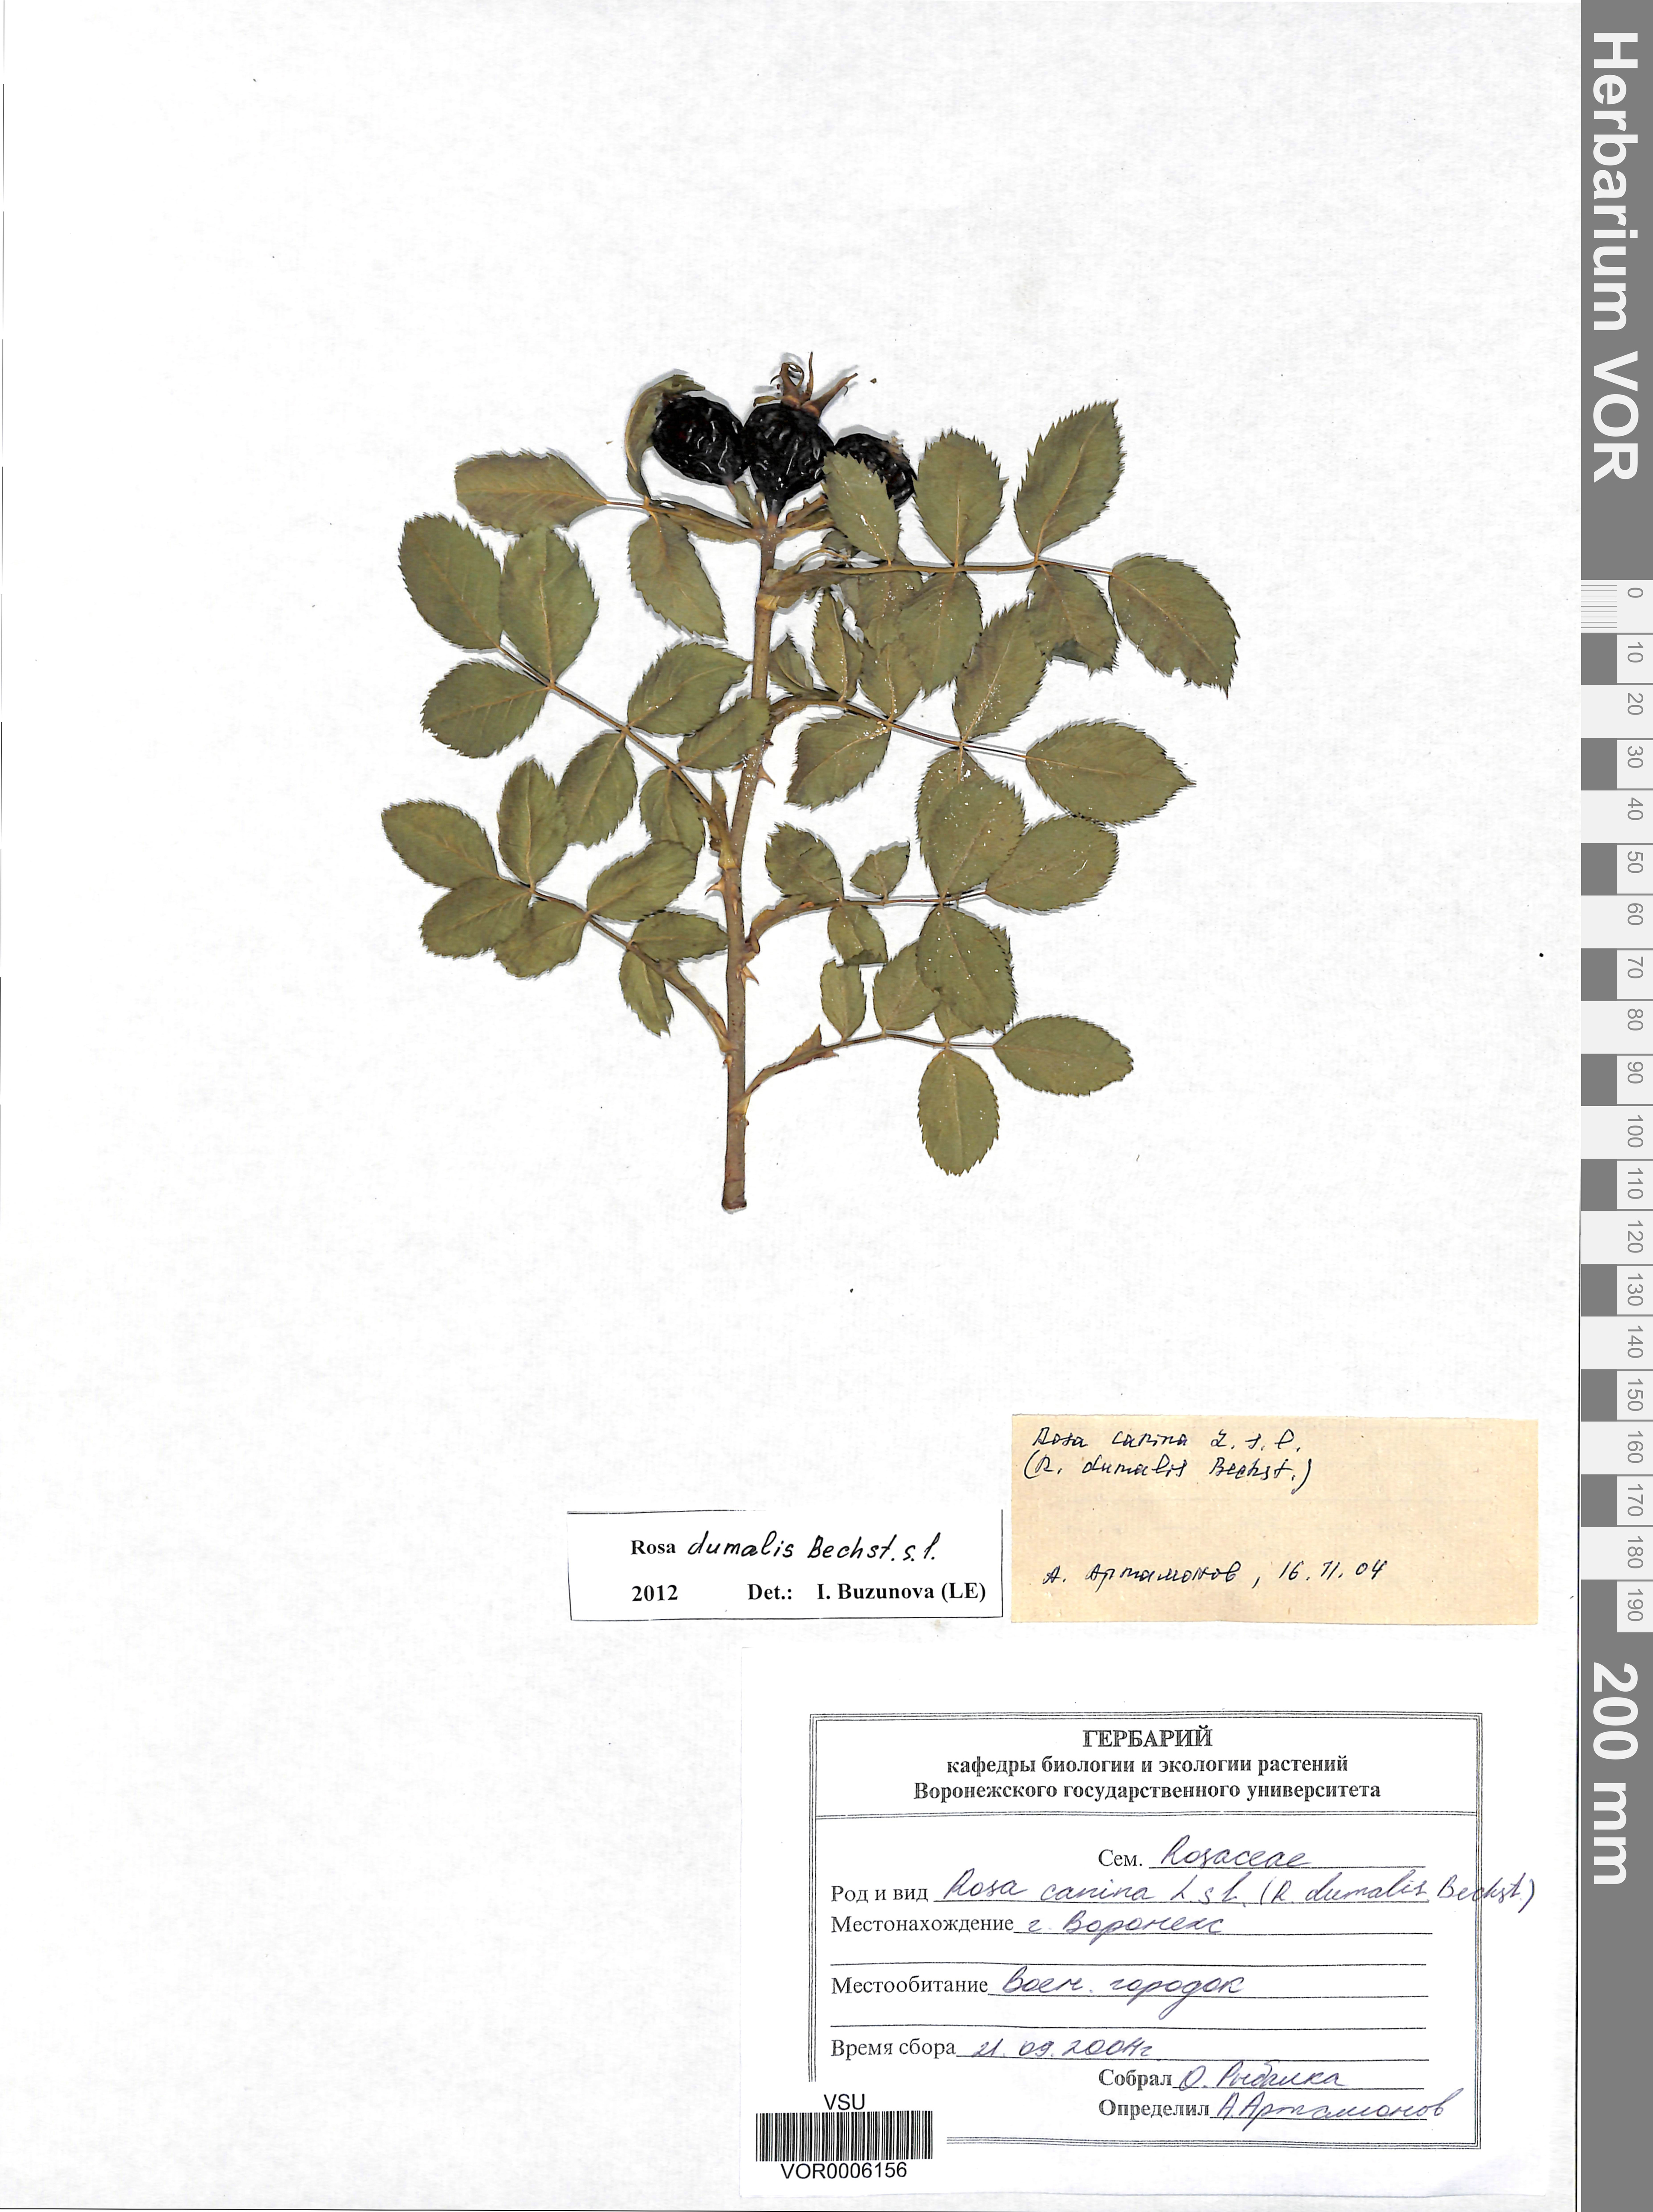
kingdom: Plantae
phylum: Tracheophyta
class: Magnoliopsida
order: Rosales
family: Rosaceae
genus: Rosa
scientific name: Rosa dumalis
